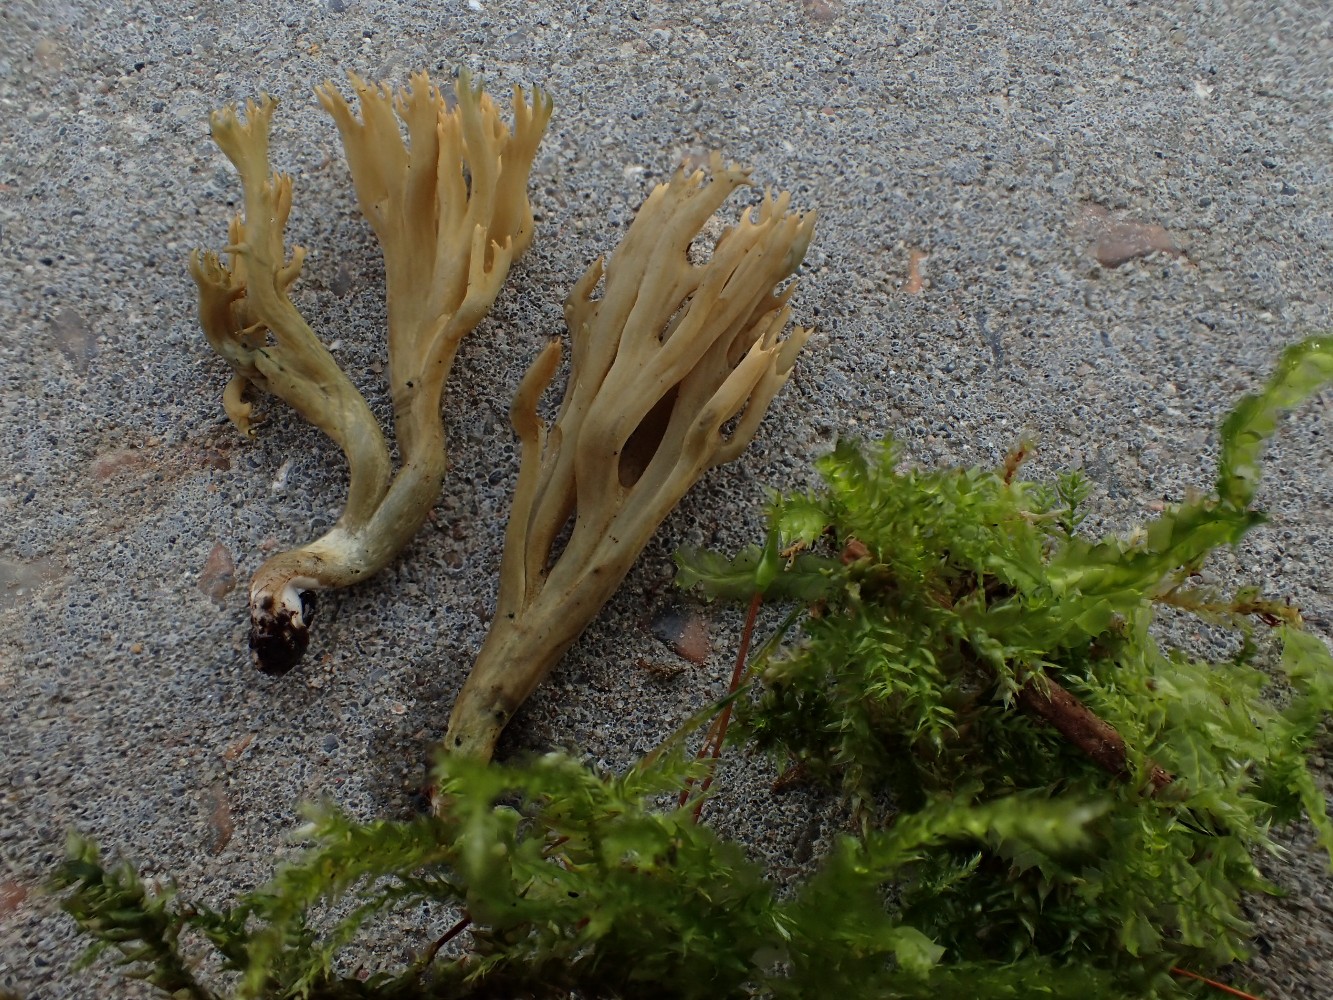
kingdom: Fungi
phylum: Basidiomycota
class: Agaricomycetes
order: Gomphales
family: Gomphaceae
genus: Phaeoclavulina
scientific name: Phaeoclavulina abietina
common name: gulgrøn koralsvamp
